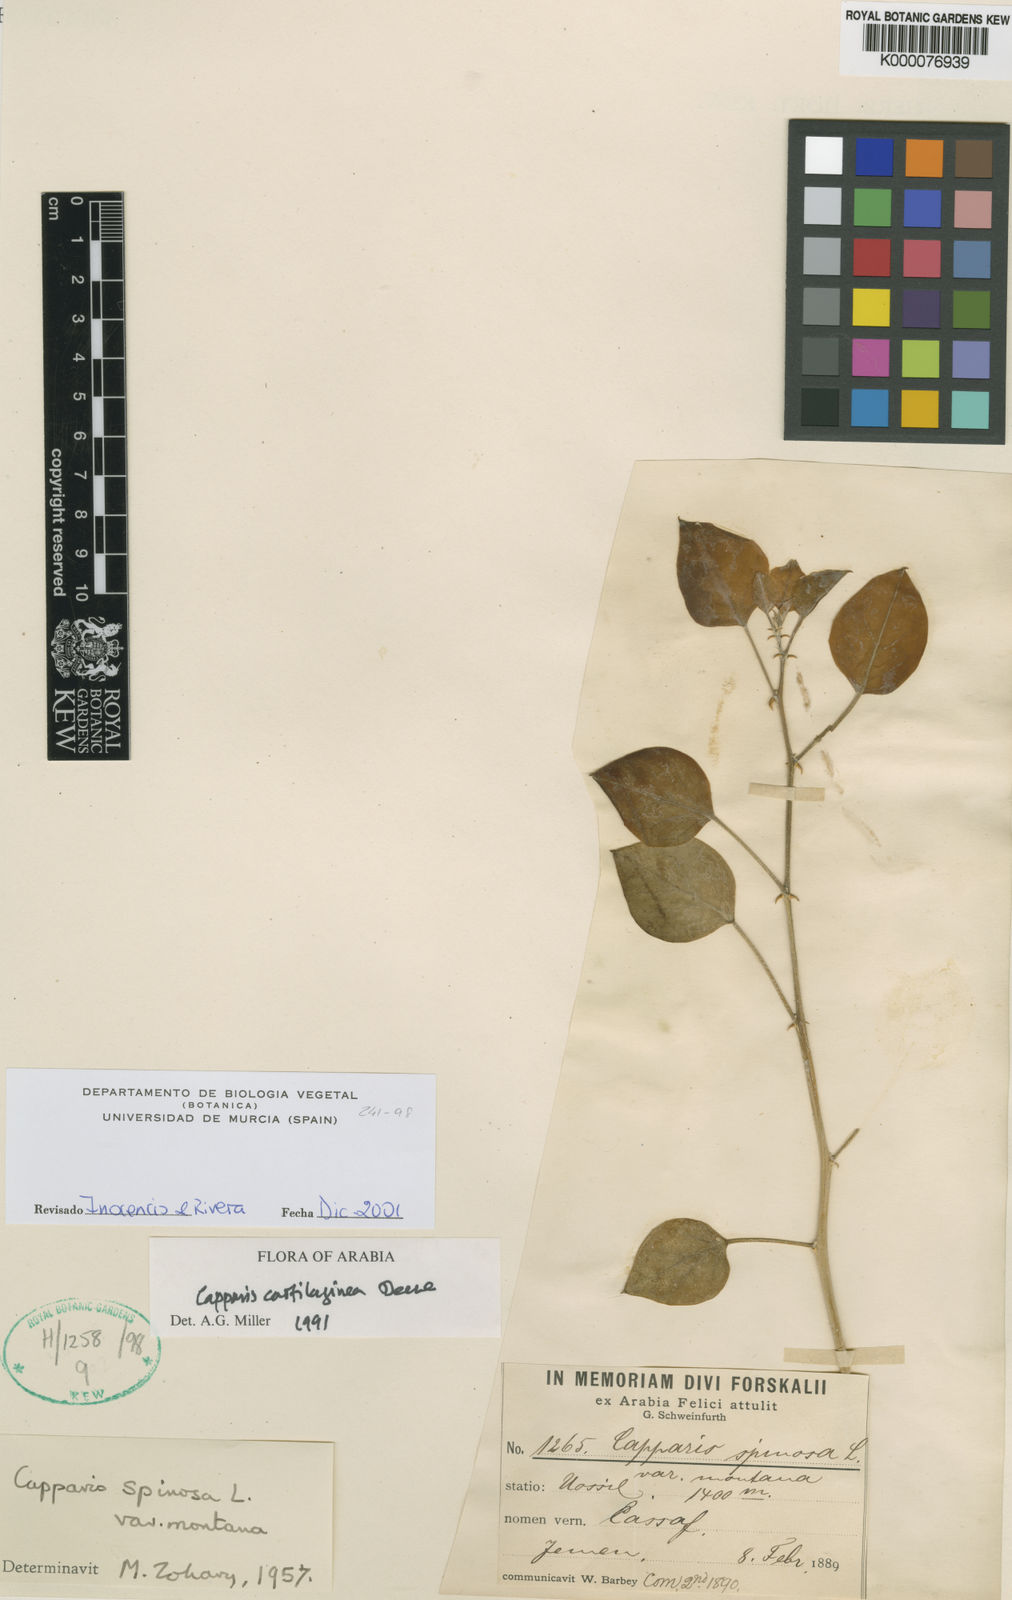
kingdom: Plantae
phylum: Tracheophyta
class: Magnoliopsida
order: Brassicales
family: Capparaceae
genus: Capparis
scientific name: Capparis cartilaginea
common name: Caper
